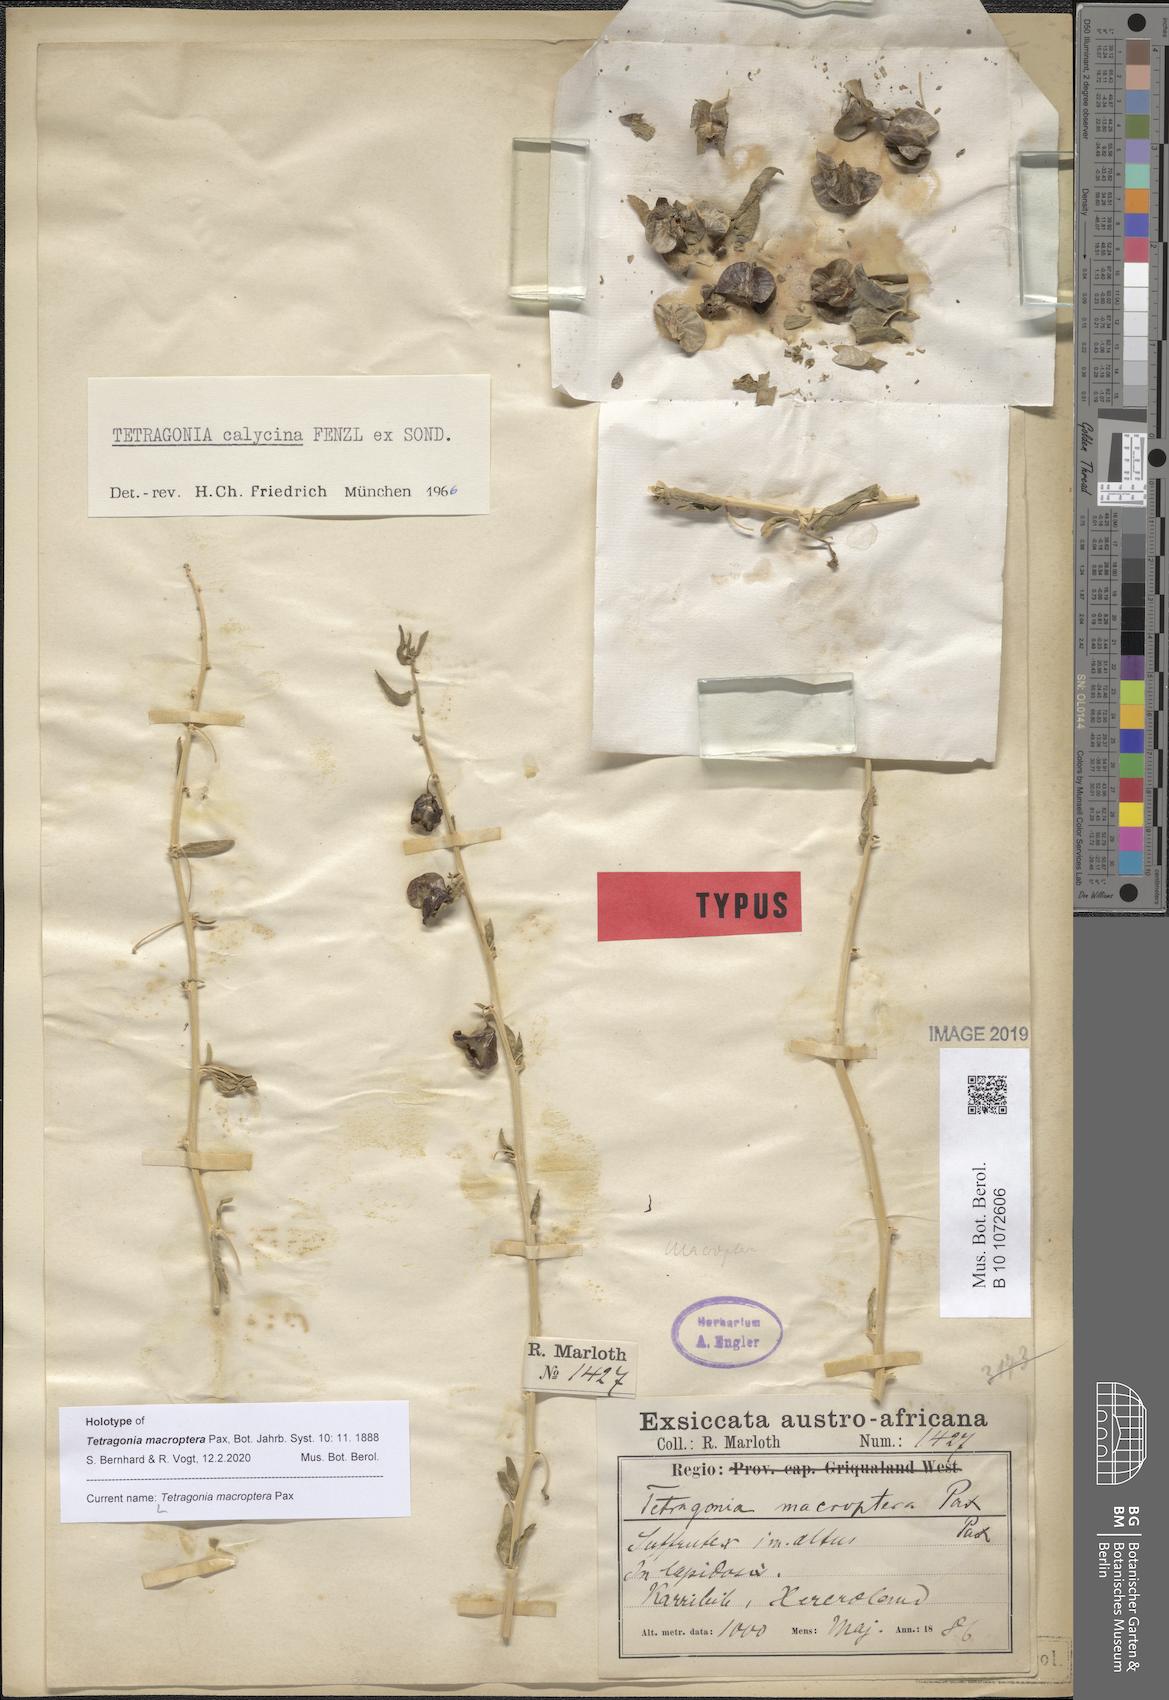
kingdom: Plantae
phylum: Tracheophyta
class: Magnoliopsida
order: Caryophyllales
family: Aizoaceae
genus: Tetragonia
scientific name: Tetragonia macroptera
